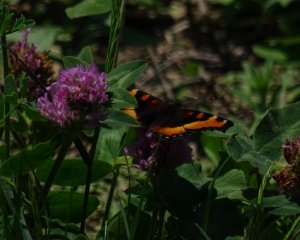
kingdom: Animalia
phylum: Arthropoda
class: Insecta
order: Lepidoptera
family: Nymphalidae
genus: Aglais
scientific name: Aglais milberti
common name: Milbert's Tortoiseshell
